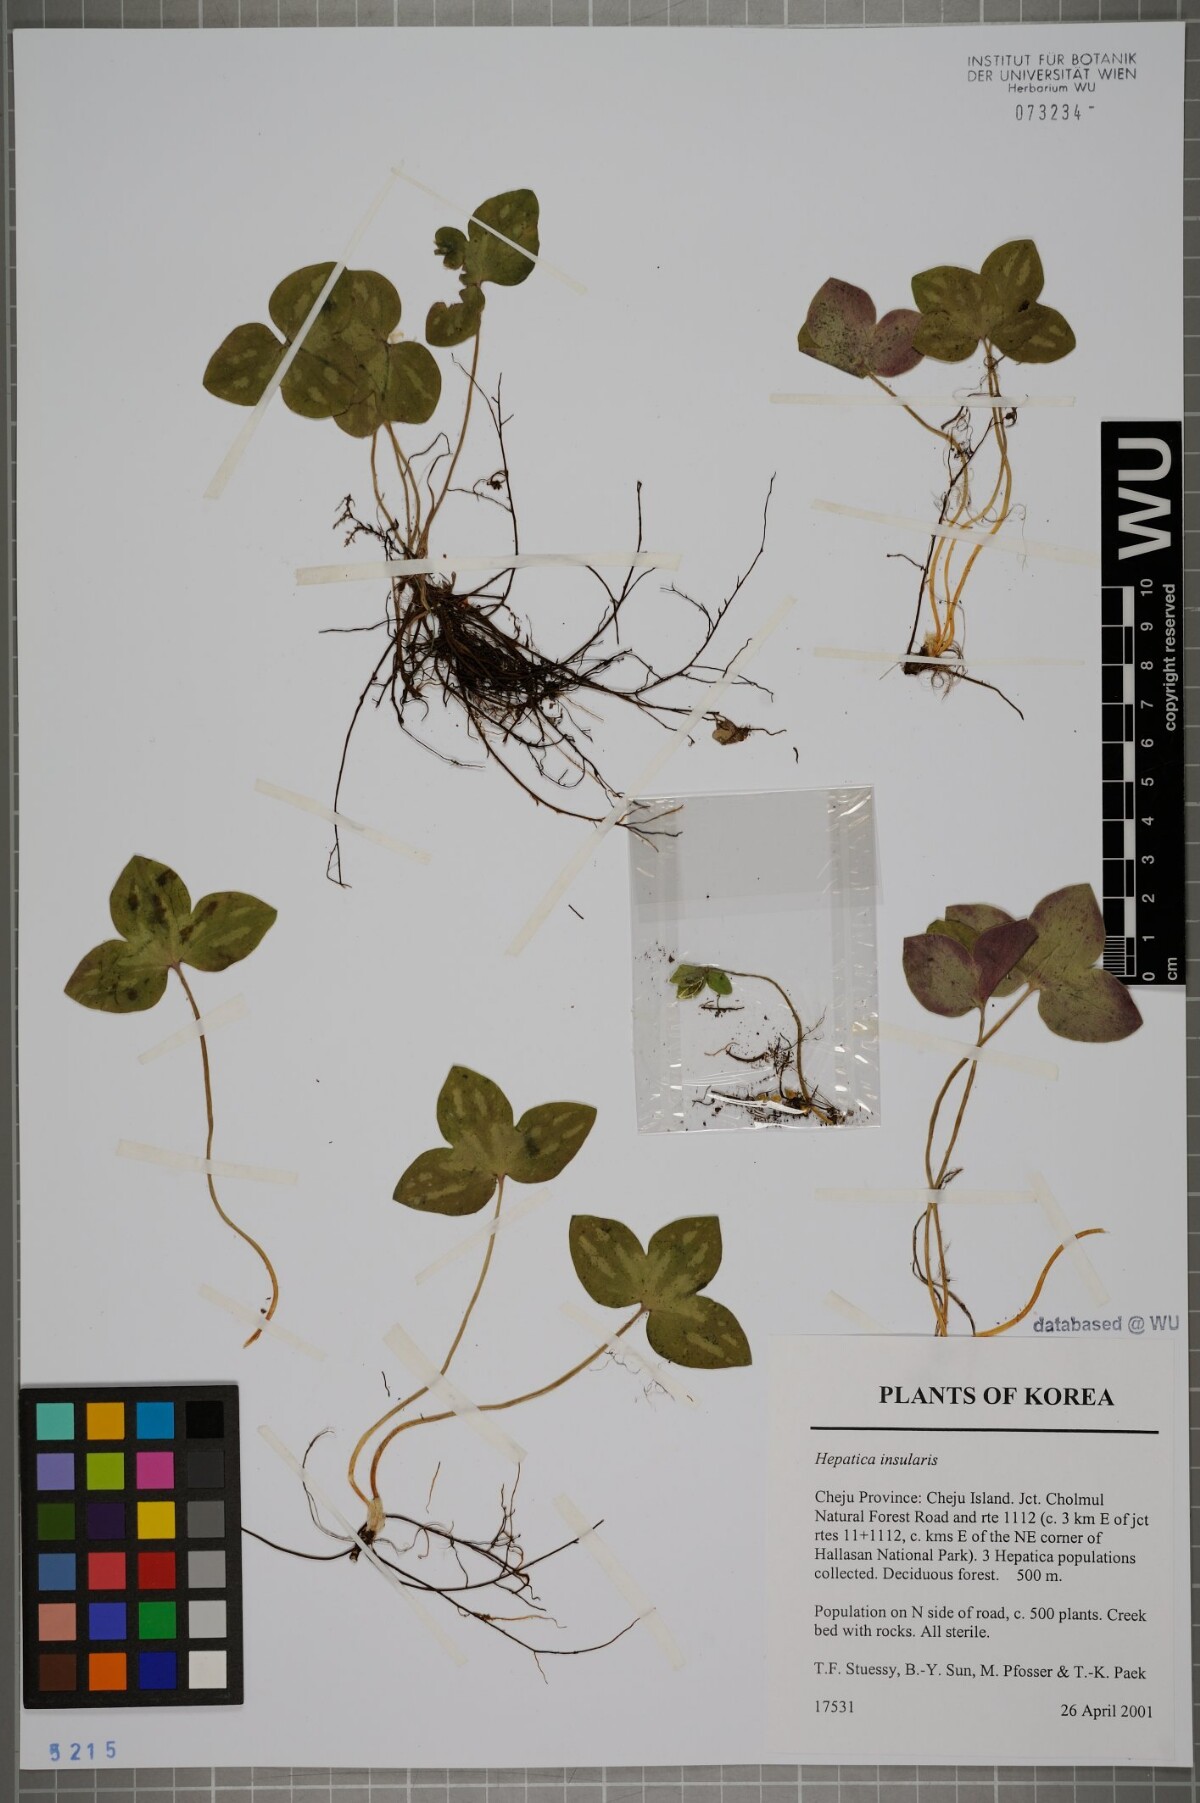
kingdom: Plantae
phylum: Tracheophyta
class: Magnoliopsida
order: Ranunculales
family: Ranunculaceae
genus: Hepatica
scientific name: Hepatica insularis
